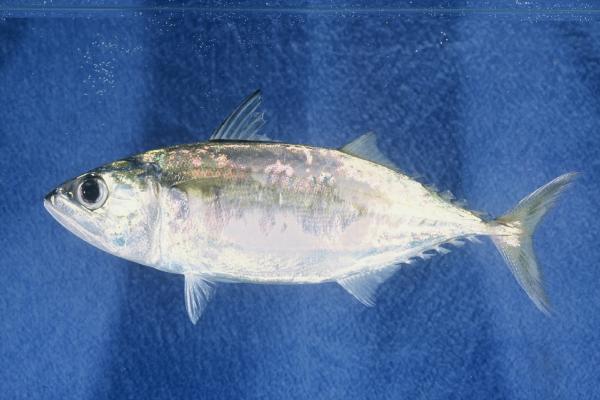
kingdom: Animalia
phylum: Chordata
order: Perciformes
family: Scombridae
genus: Rastrelliger
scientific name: Rastrelliger kanagurta
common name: Indian mackerel
